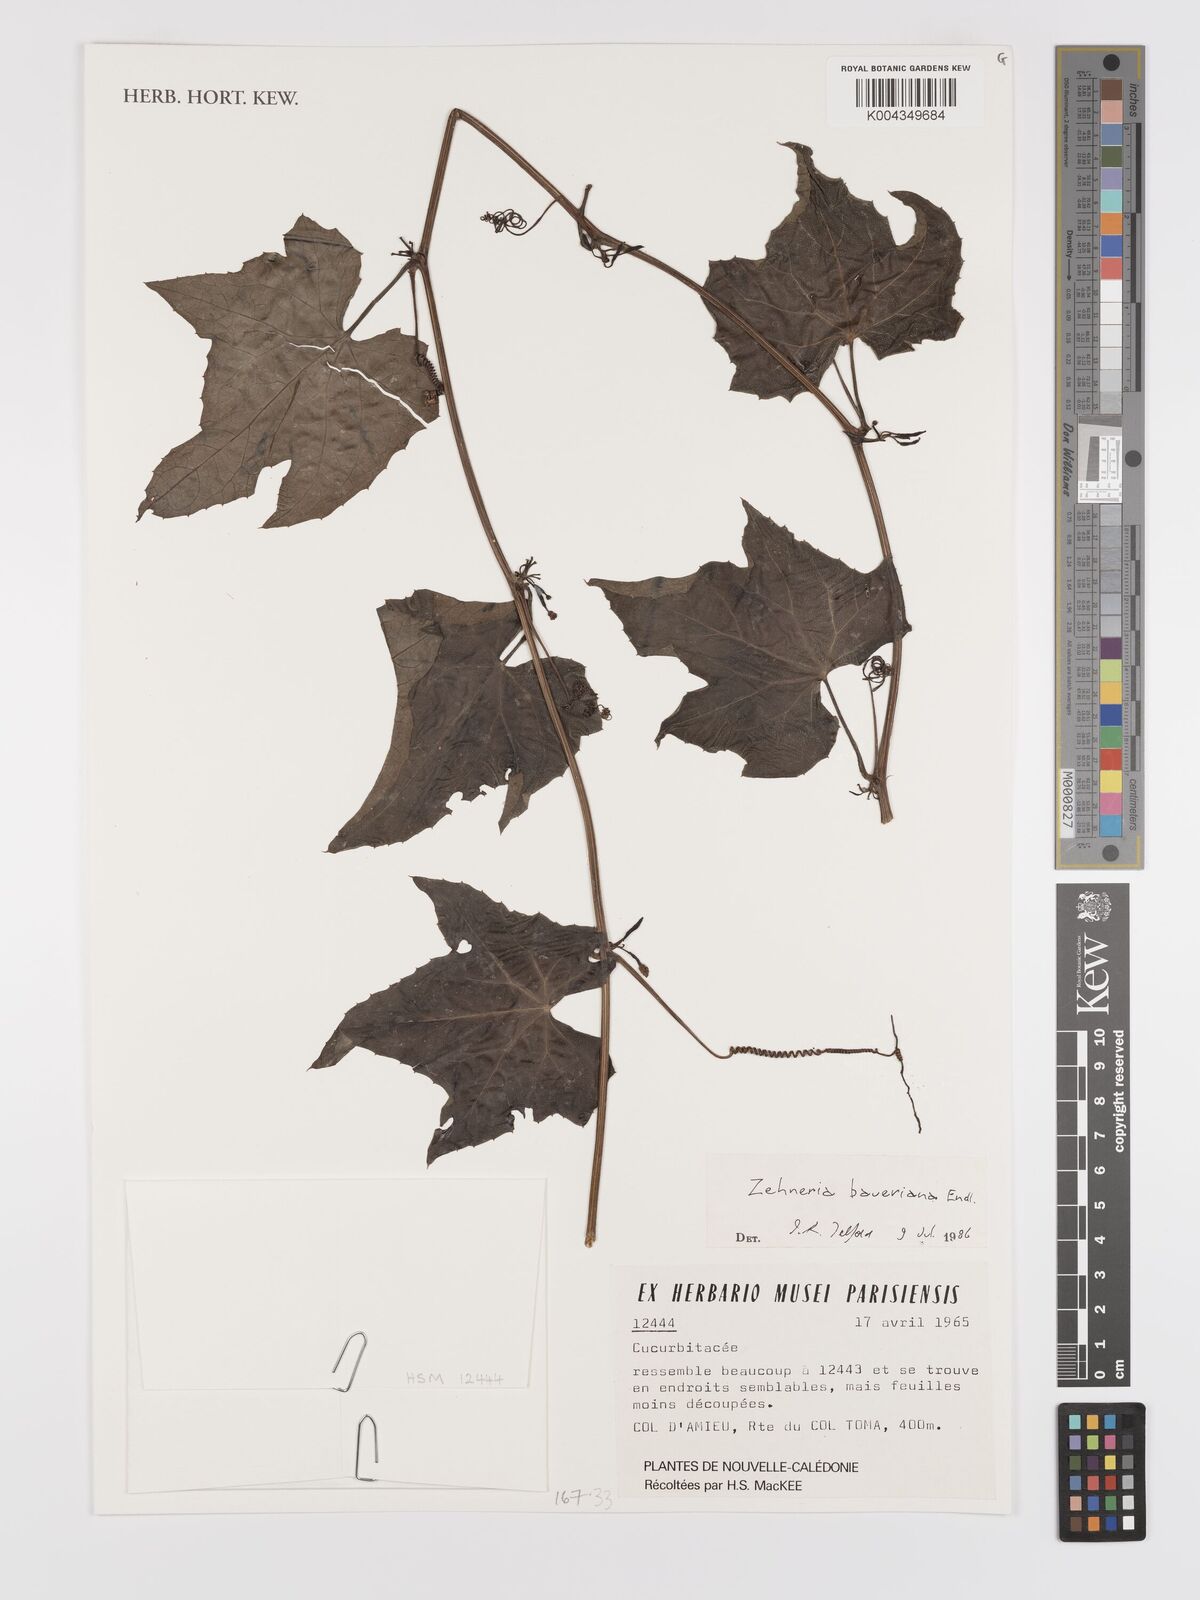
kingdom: Plantae
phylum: Tracheophyta
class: Magnoliopsida
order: Cucurbitales
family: Cucurbitaceae
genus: Zehneria
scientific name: Zehneria mucronata
